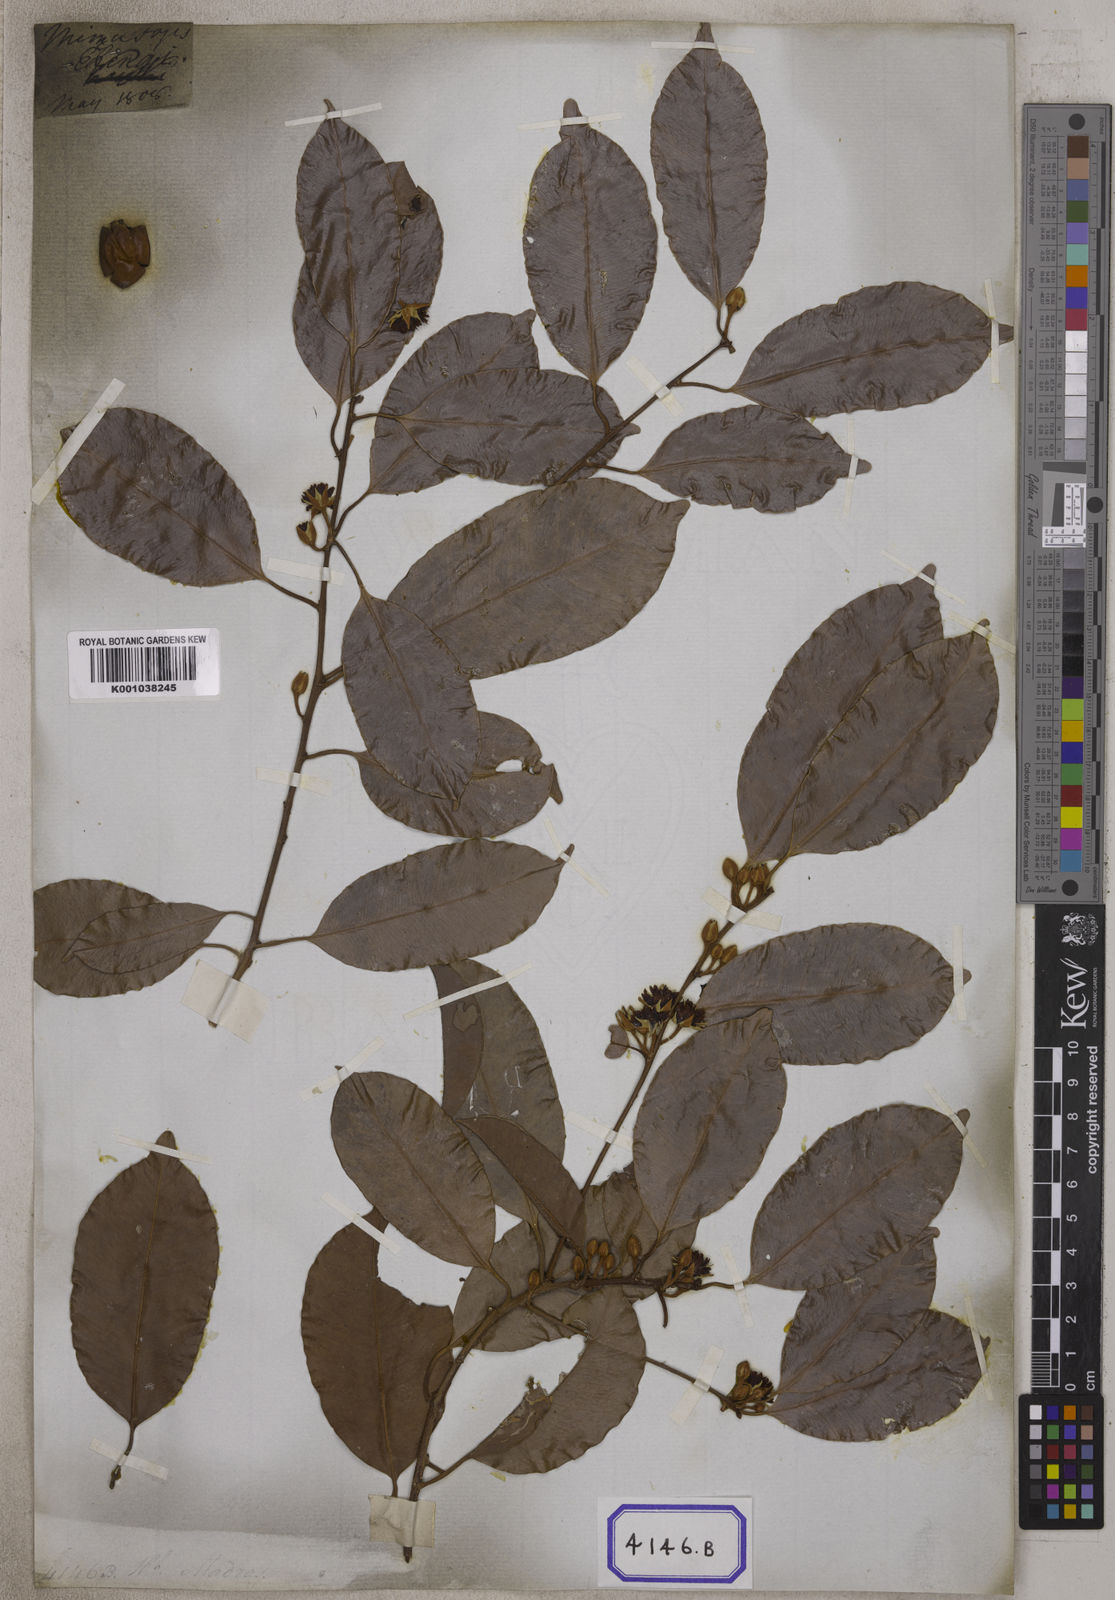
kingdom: Plantae
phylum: Tracheophyta
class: Magnoliopsida
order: Ericales
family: Sapotaceae
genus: Mimusops
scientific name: Mimusops
